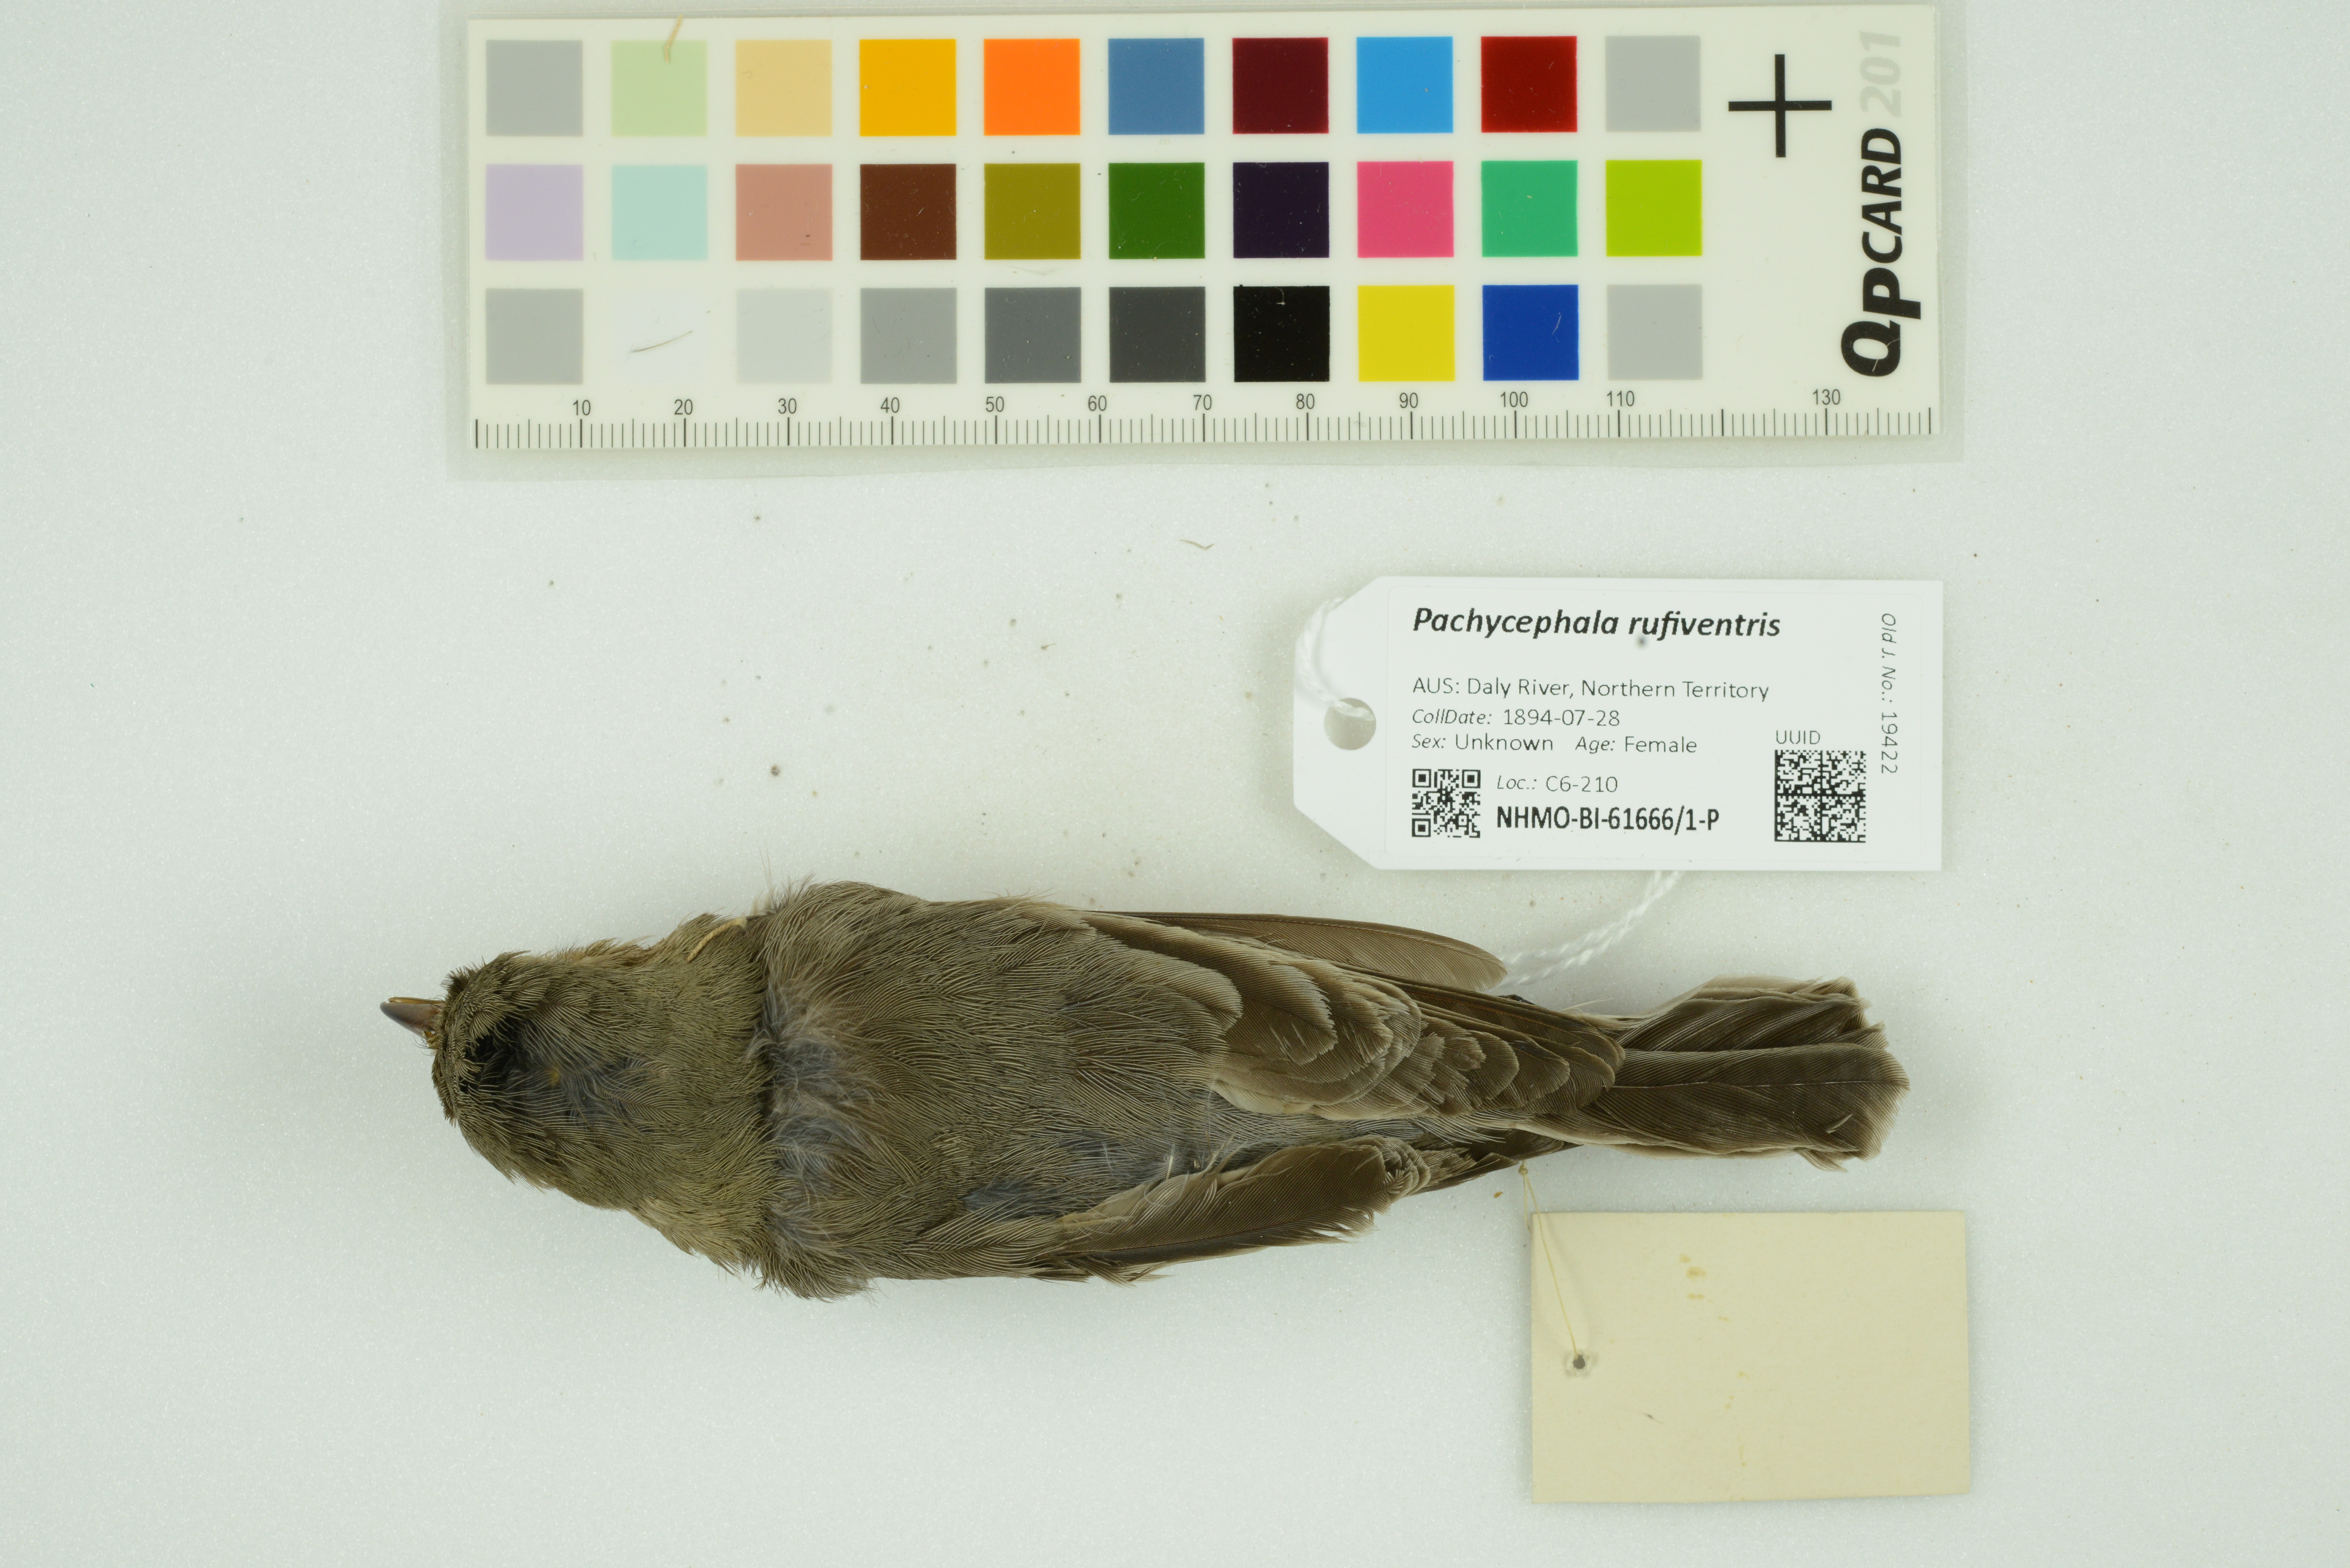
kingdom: Animalia
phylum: Chordata
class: Aves
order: Passeriformes
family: Pachycephalidae
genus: Pachycephala
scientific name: Pachycephala rufiventris
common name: Rufous whistler
